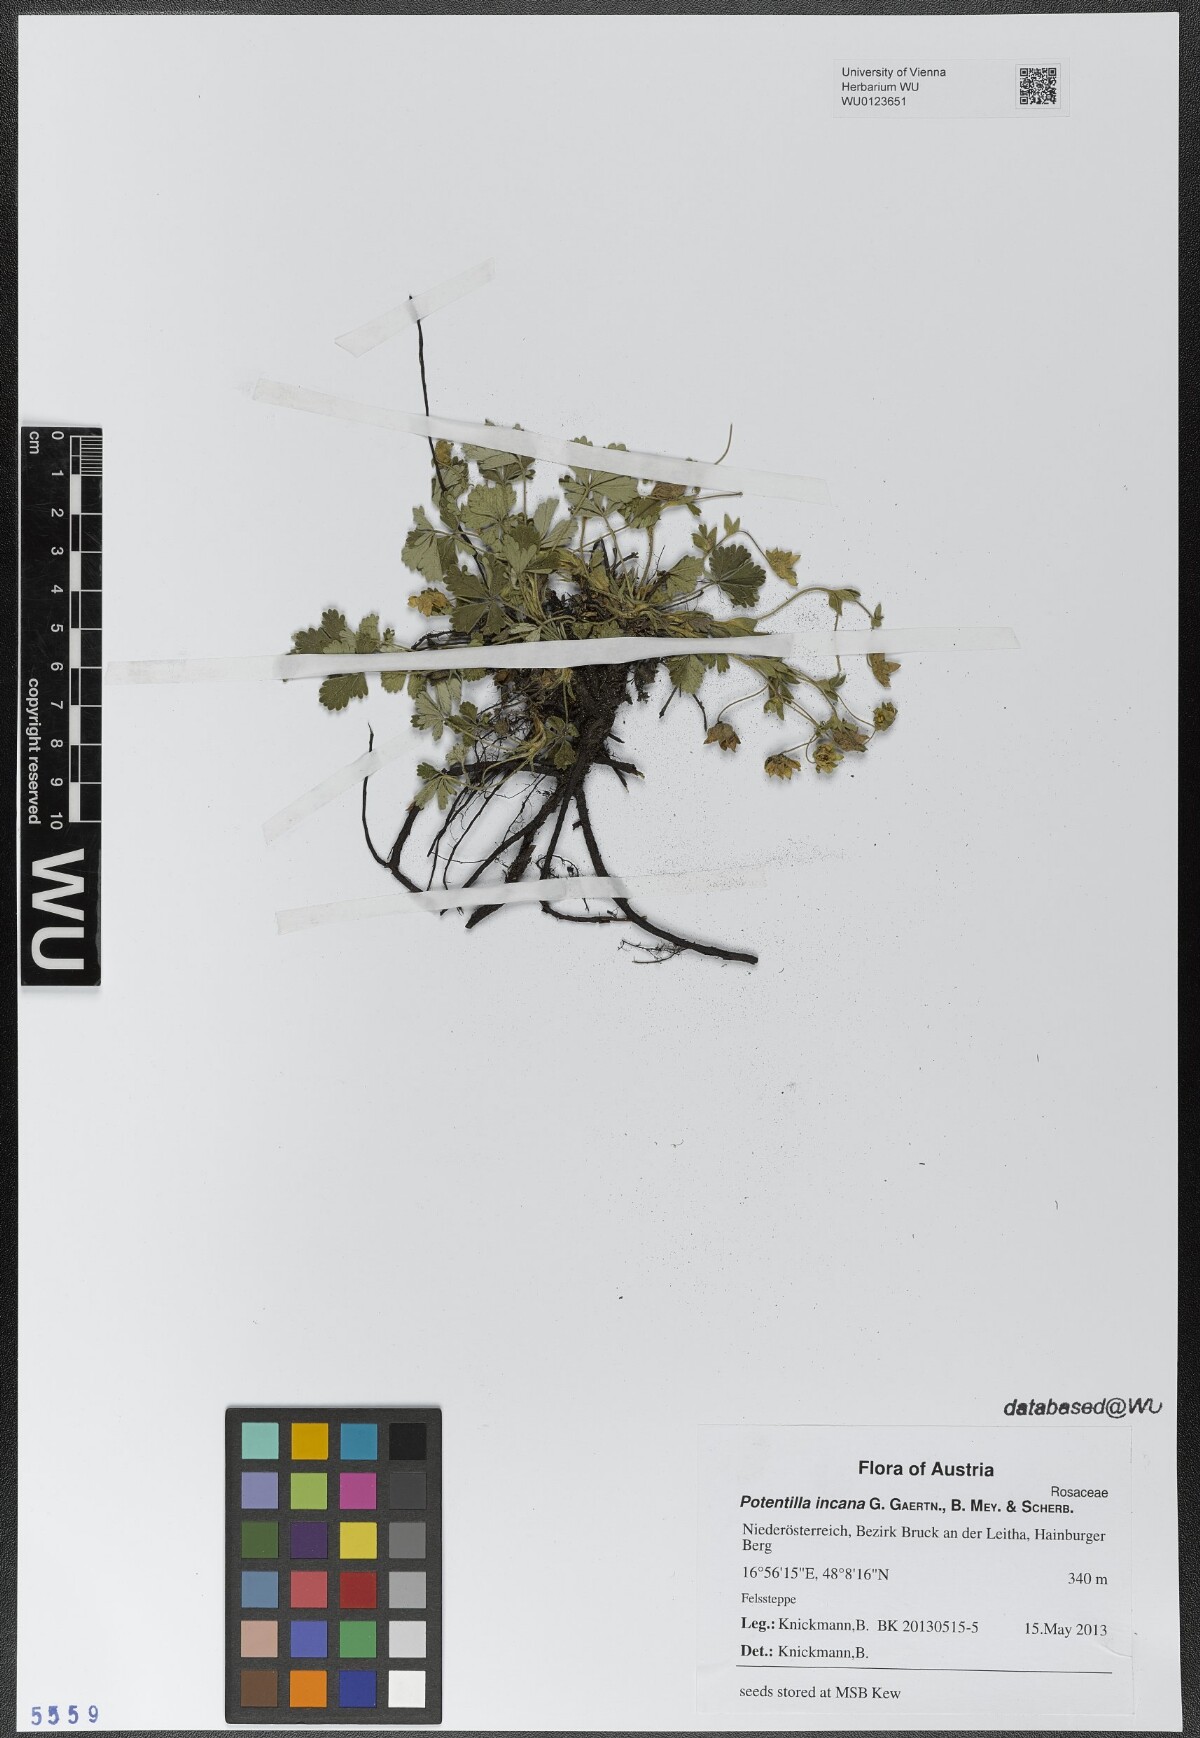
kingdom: Plantae
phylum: Tracheophyta
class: Magnoliopsida
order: Rosales
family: Rosaceae
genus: Potentilla
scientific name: Potentilla cinerea
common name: Ashy cinquefoil
